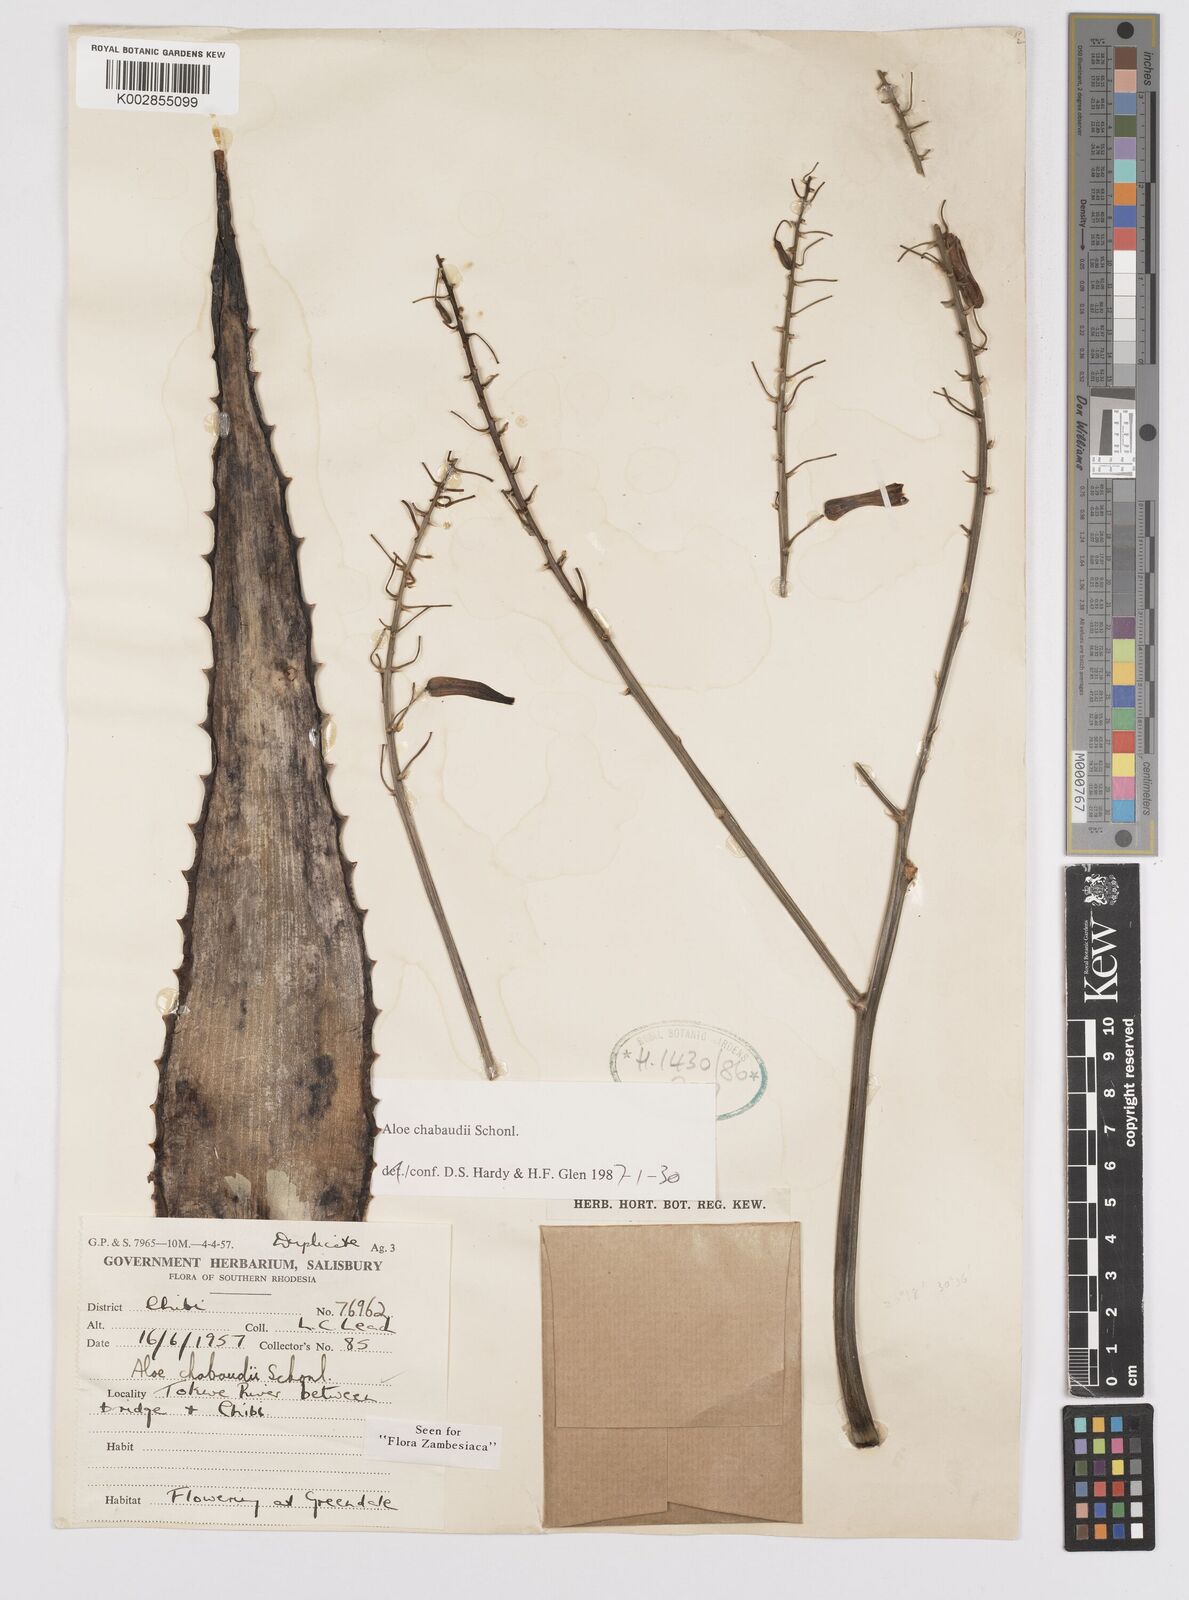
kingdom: Plantae
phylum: Tracheophyta
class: Liliopsida
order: Asparagales
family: Asphodelaceae
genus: Aloe
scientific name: Aloe chabaudii
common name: Chabaud's aloe
